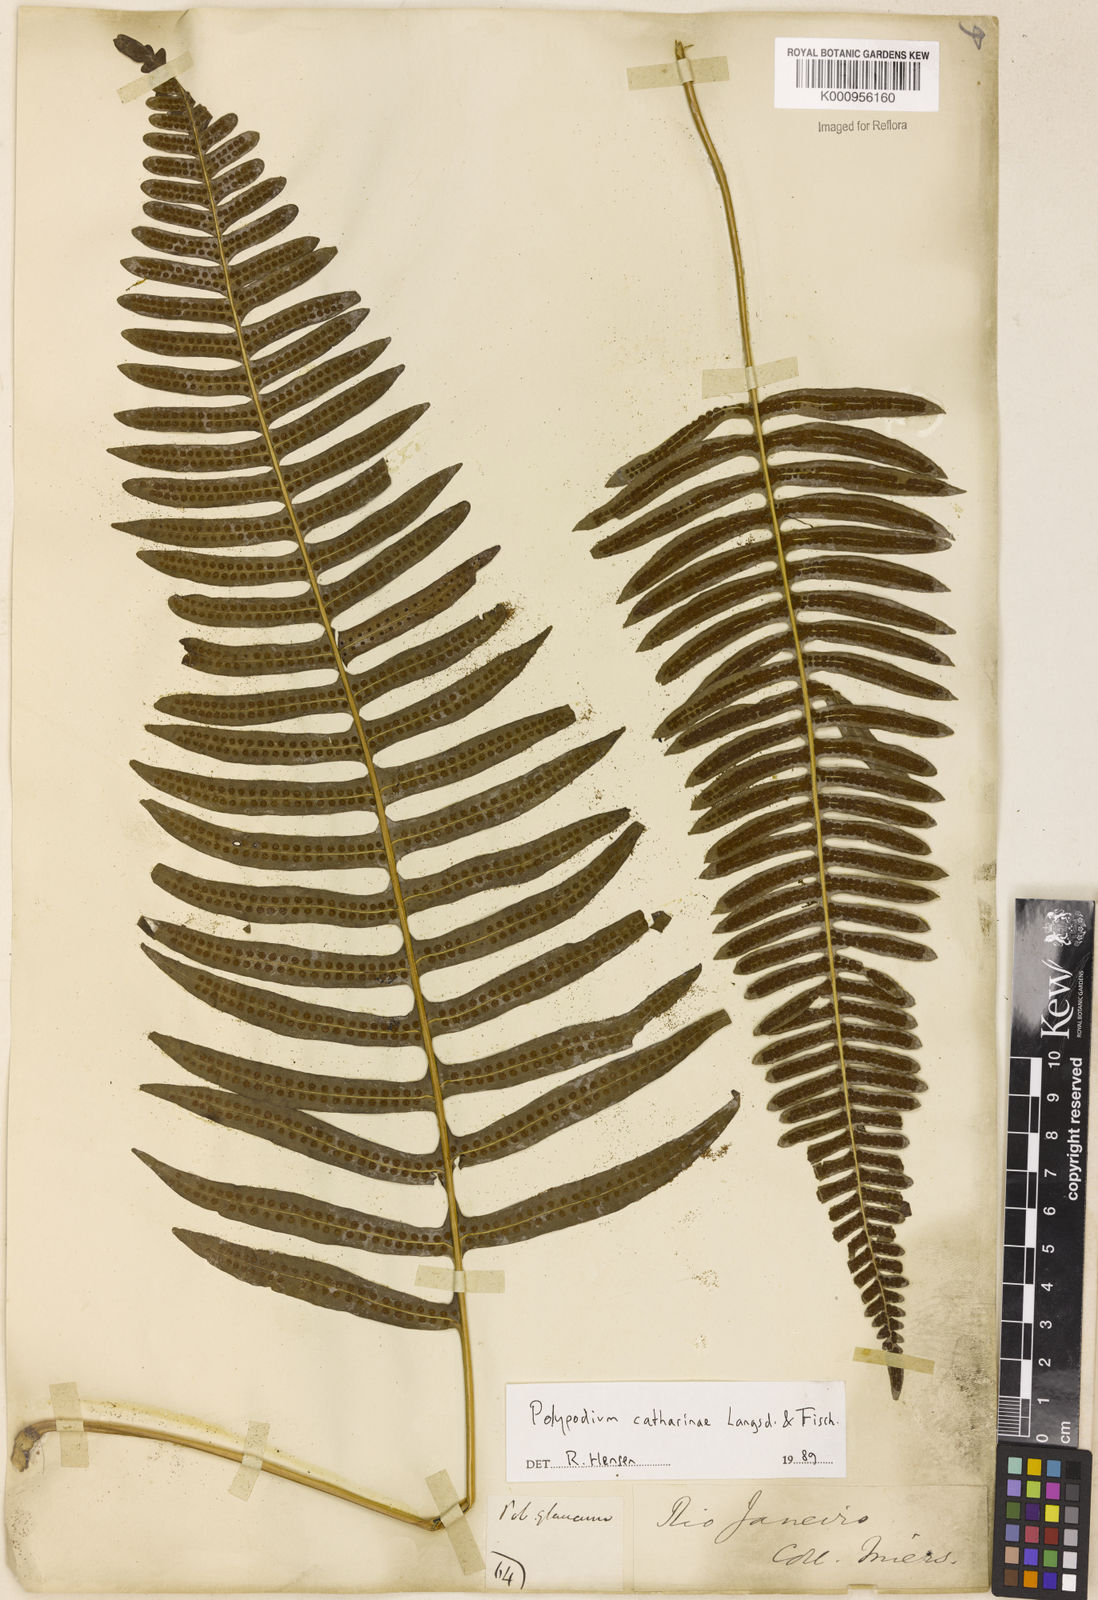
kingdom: Plantae
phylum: Tracheophyta
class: Polypodiopsida
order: Polypodiales
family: Polypodiaceae
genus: Serpocaulon
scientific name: Serpocaulon catharinae
